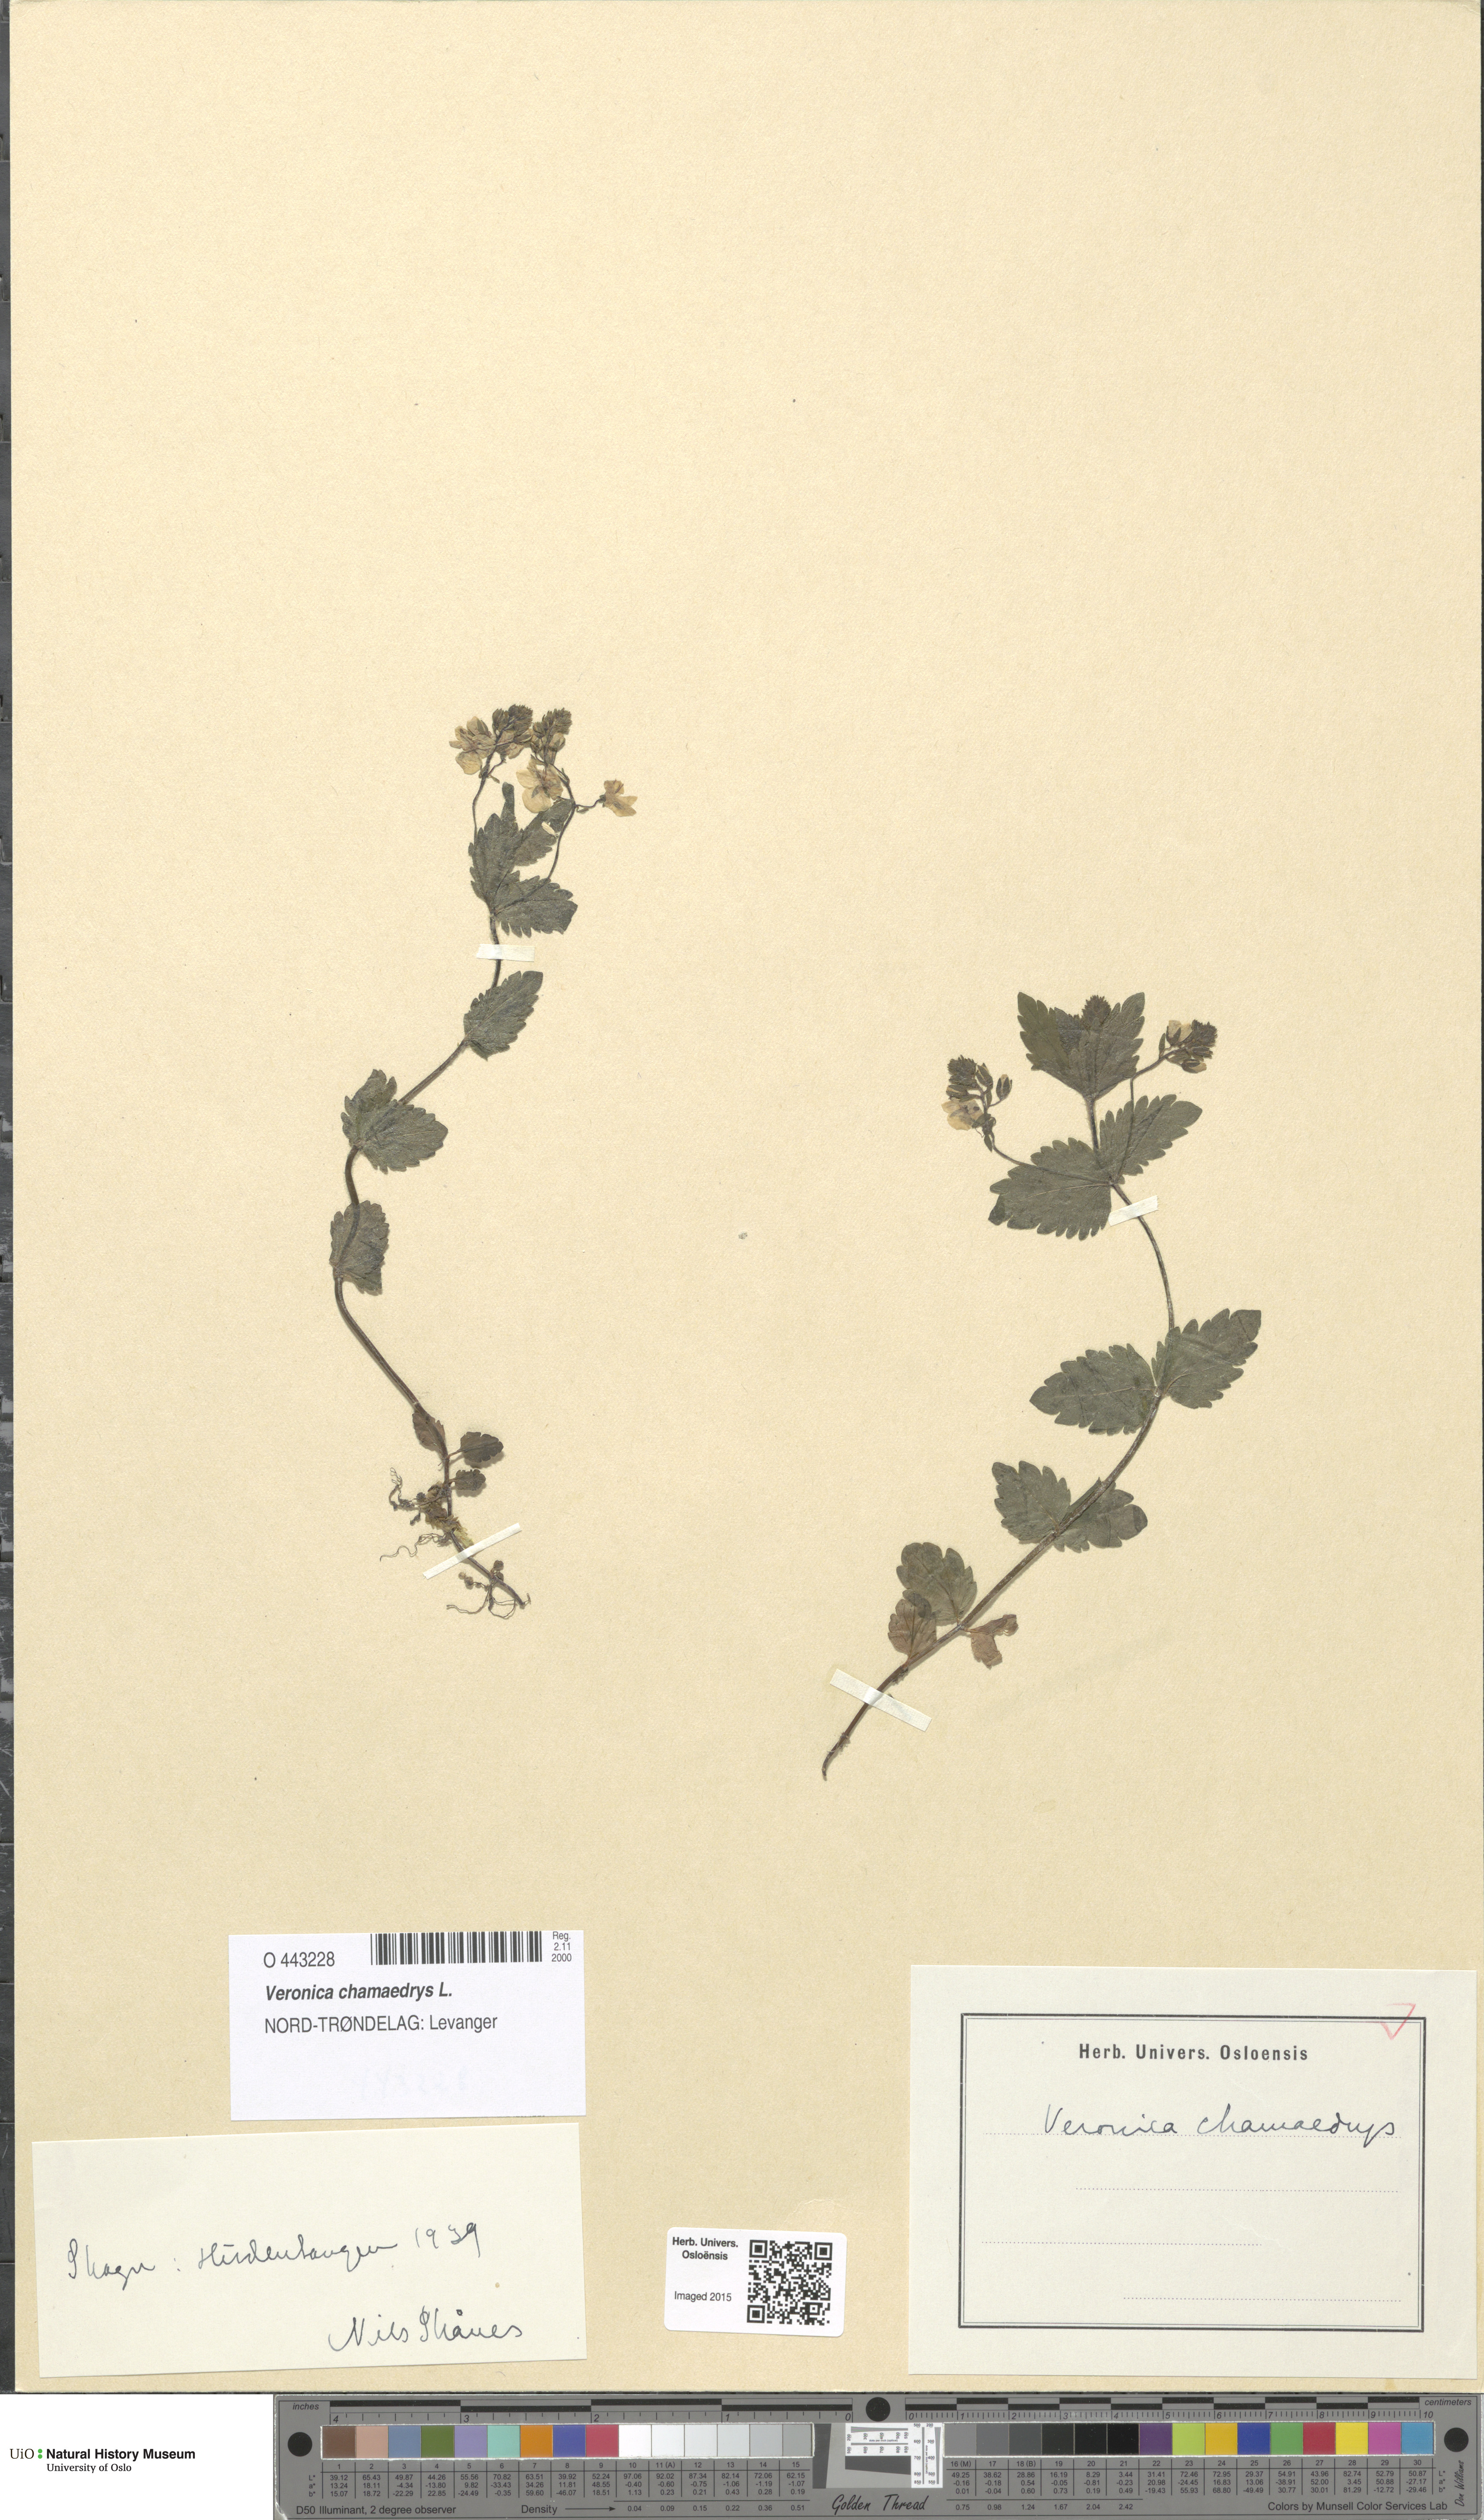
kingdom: Plantae
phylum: Tracheophyta
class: Magnoliopsida
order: Lamiales
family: Plantaginaceae
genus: Veronica
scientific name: Veronica chamaedrys
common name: Germander speedwell
